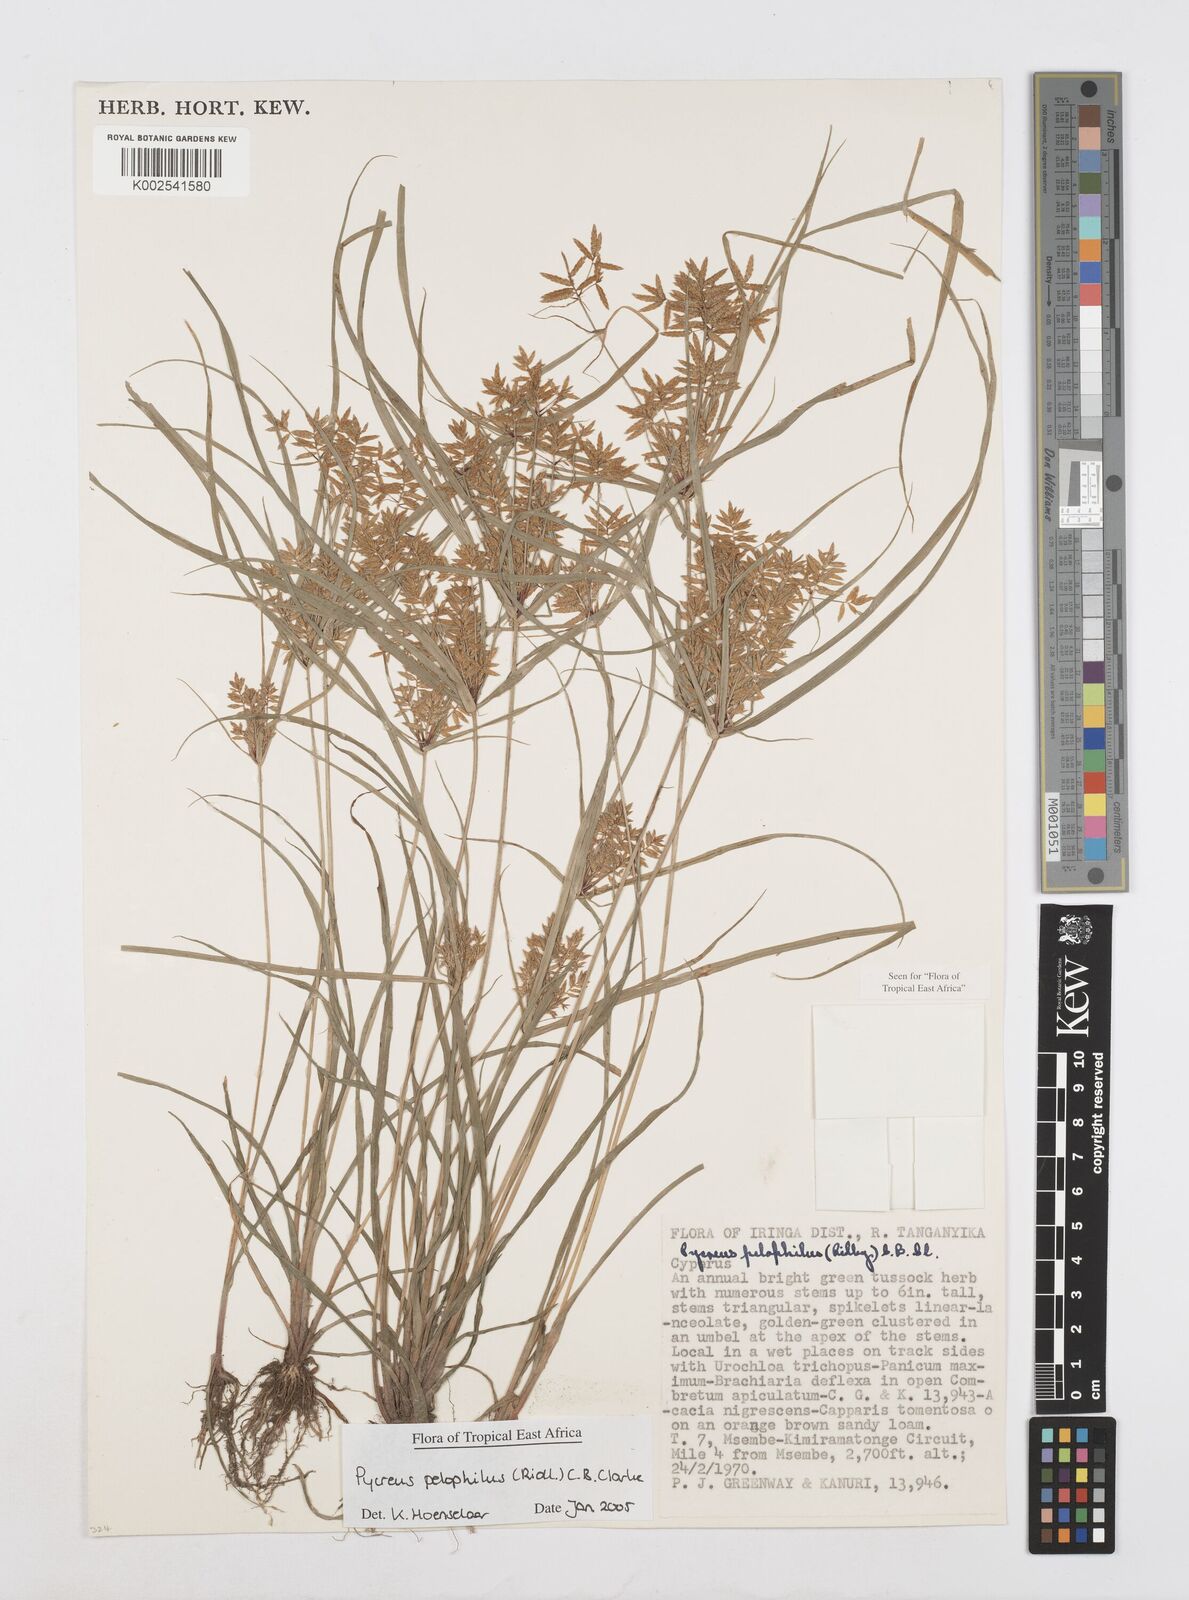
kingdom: Plantae
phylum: Tracheophyta
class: Liliopsida
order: Poales
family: Cyperaceae
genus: Cyperus
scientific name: Cyperus pelophilus
